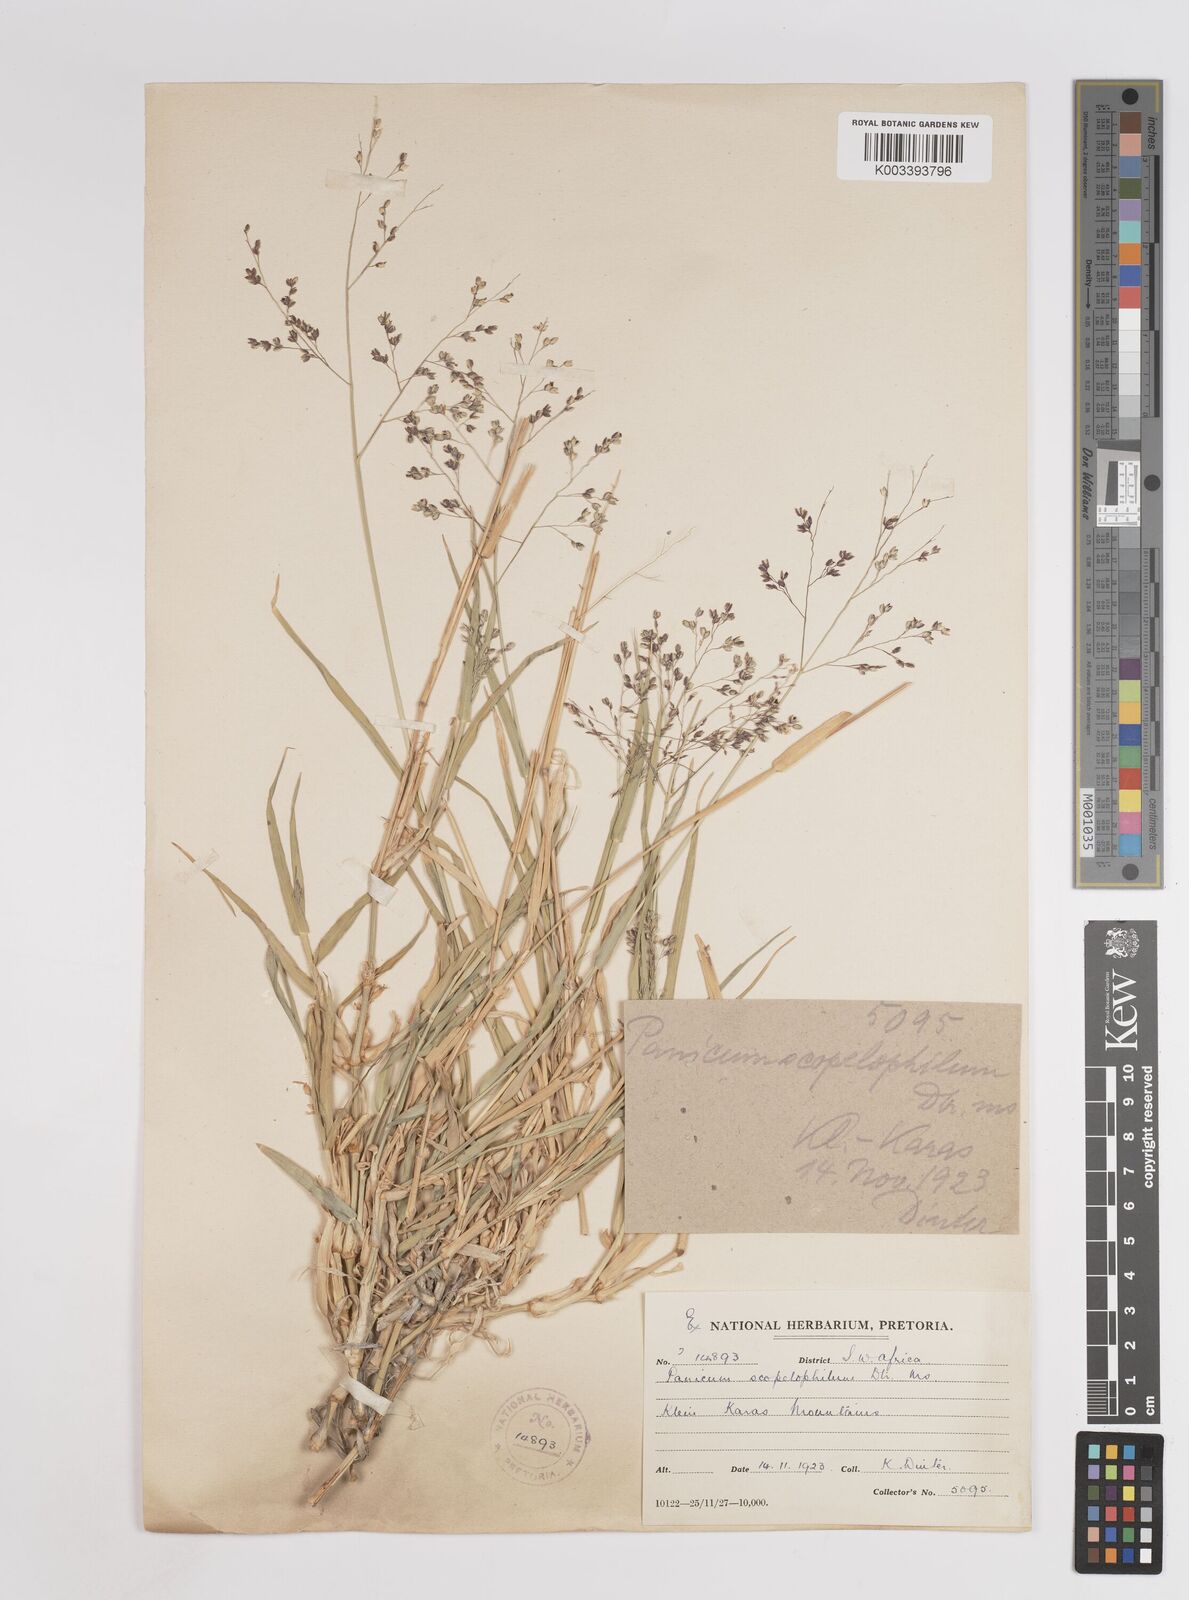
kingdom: Plantae
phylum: Tracheophyta
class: Liliopsida
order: Poales
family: Poaceae
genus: Panicum
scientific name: Panicum
